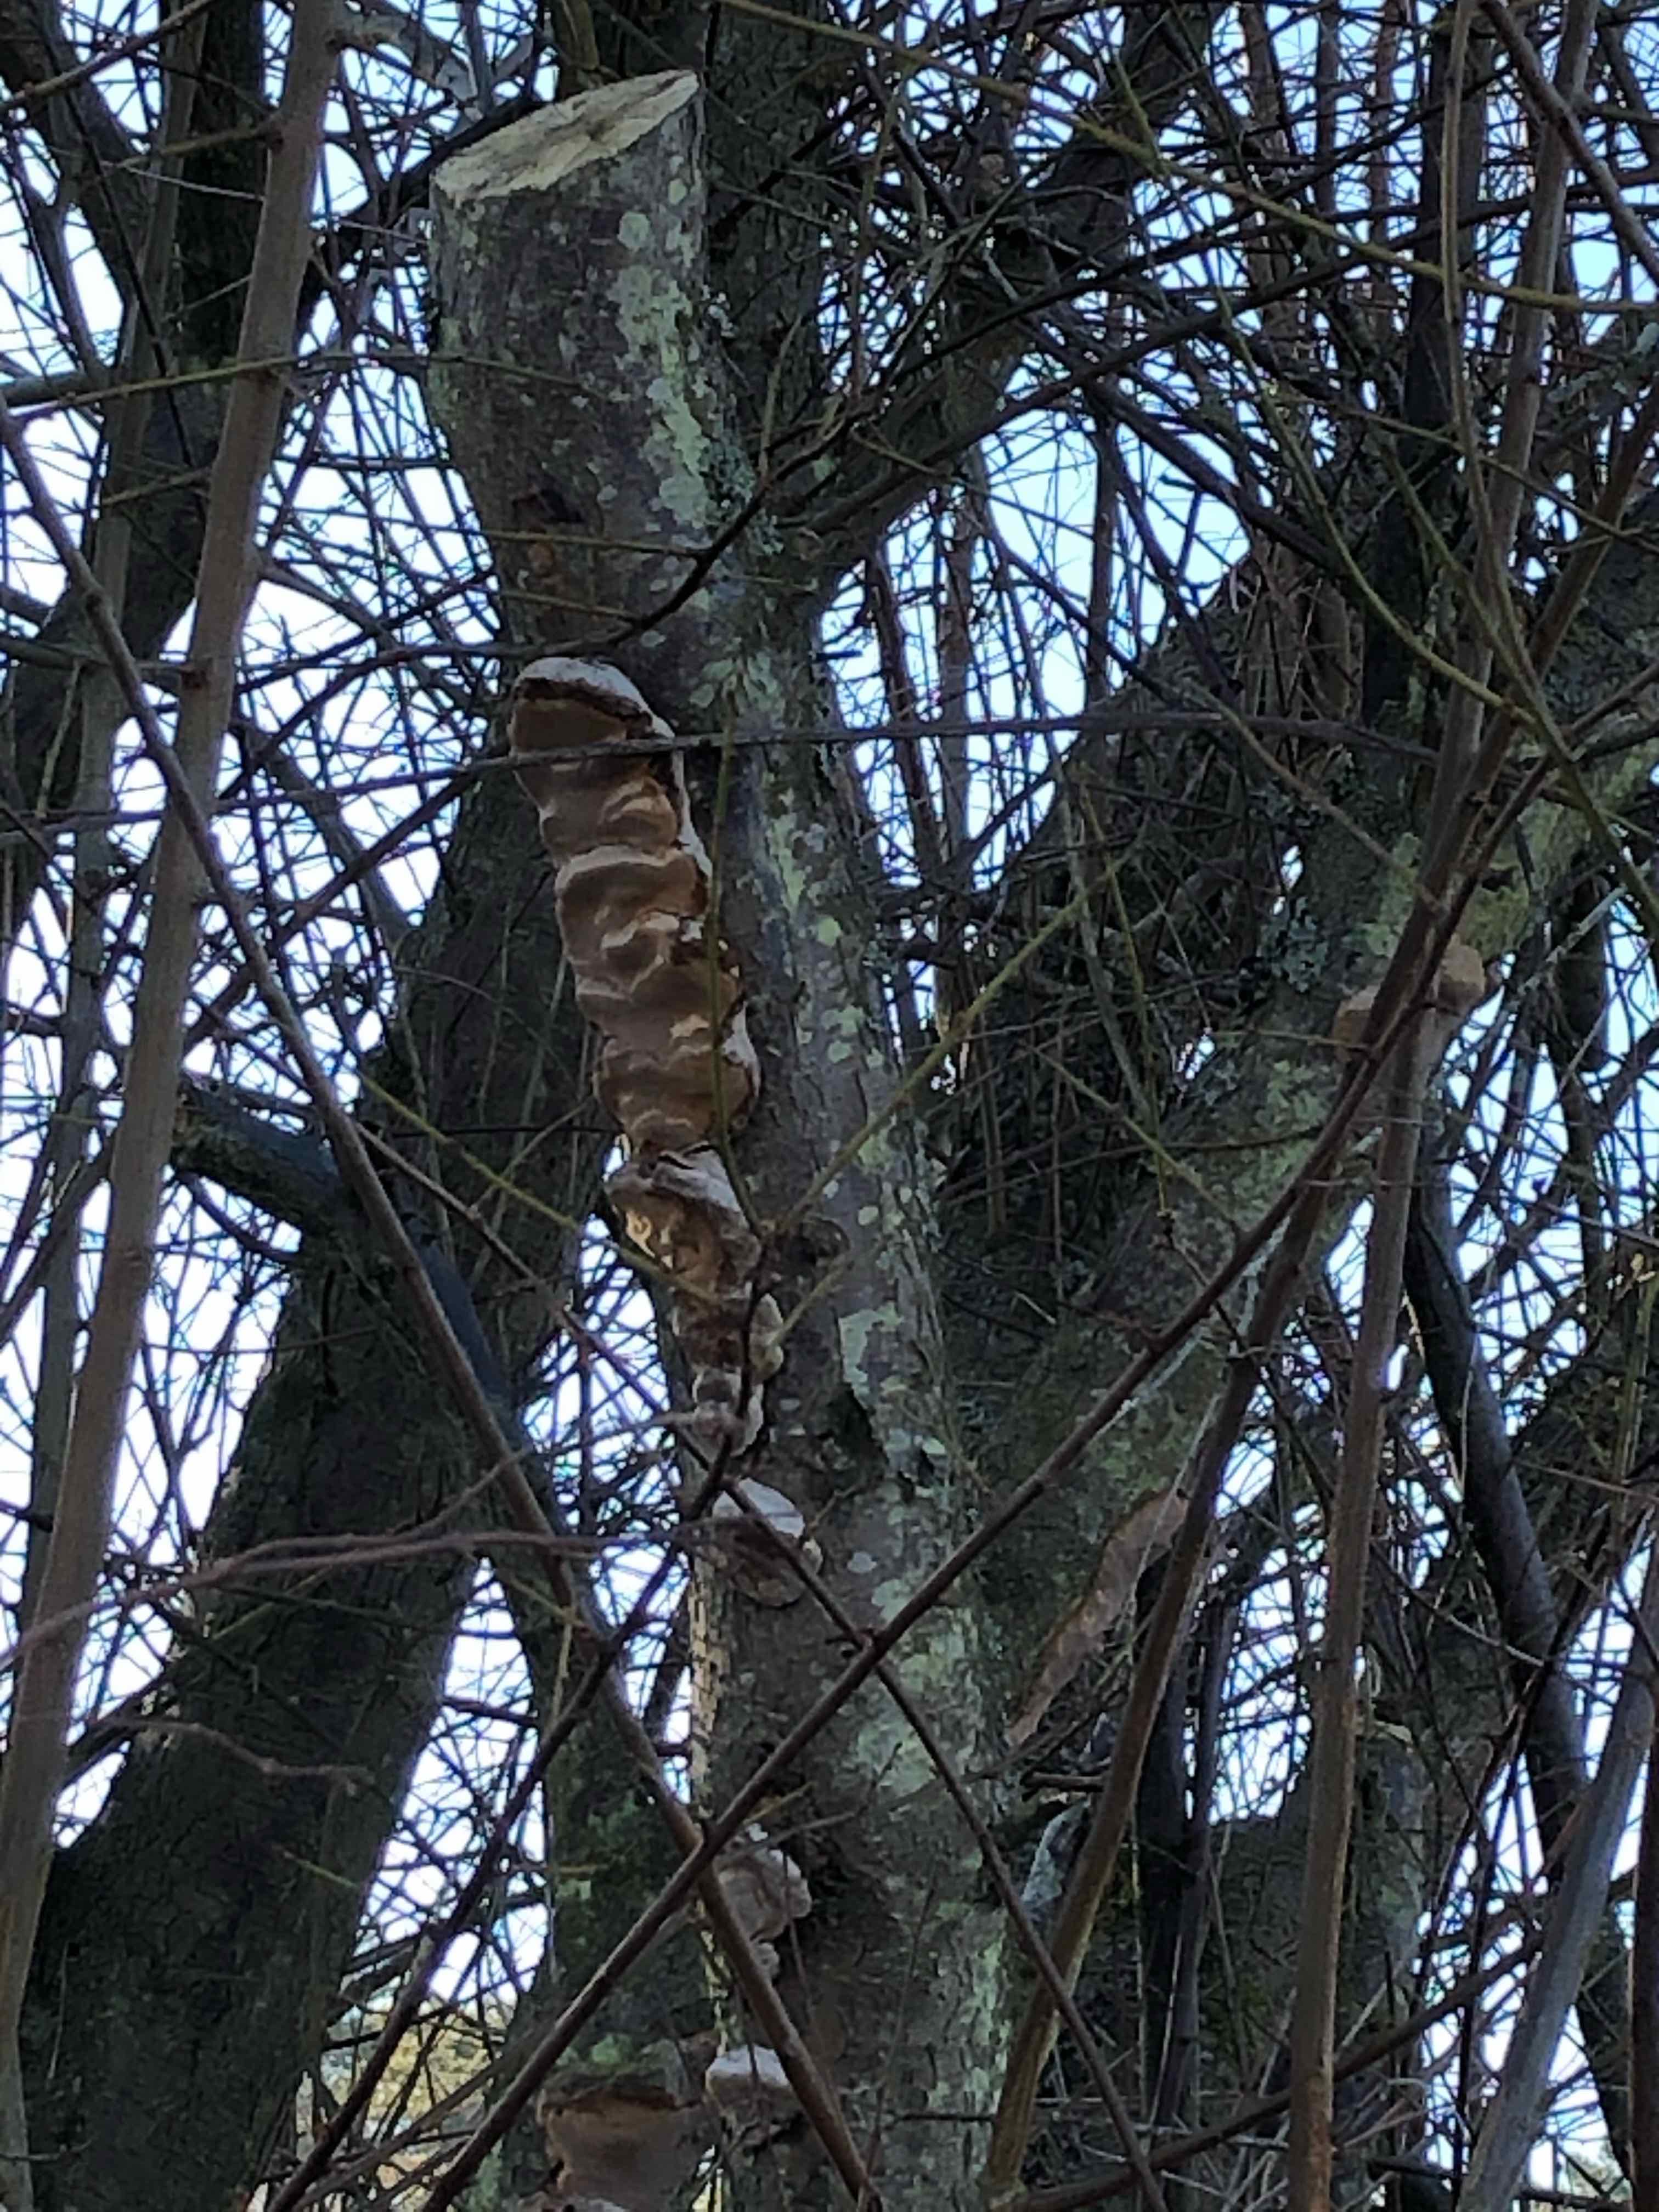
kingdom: Fungi
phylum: Basidiomycota
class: Agaricomycetes
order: Hymenochaetales
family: Hymenochaetaceae
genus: Phellinus
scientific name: Phellinus pomaceus
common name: blomme-ildporesvamp
